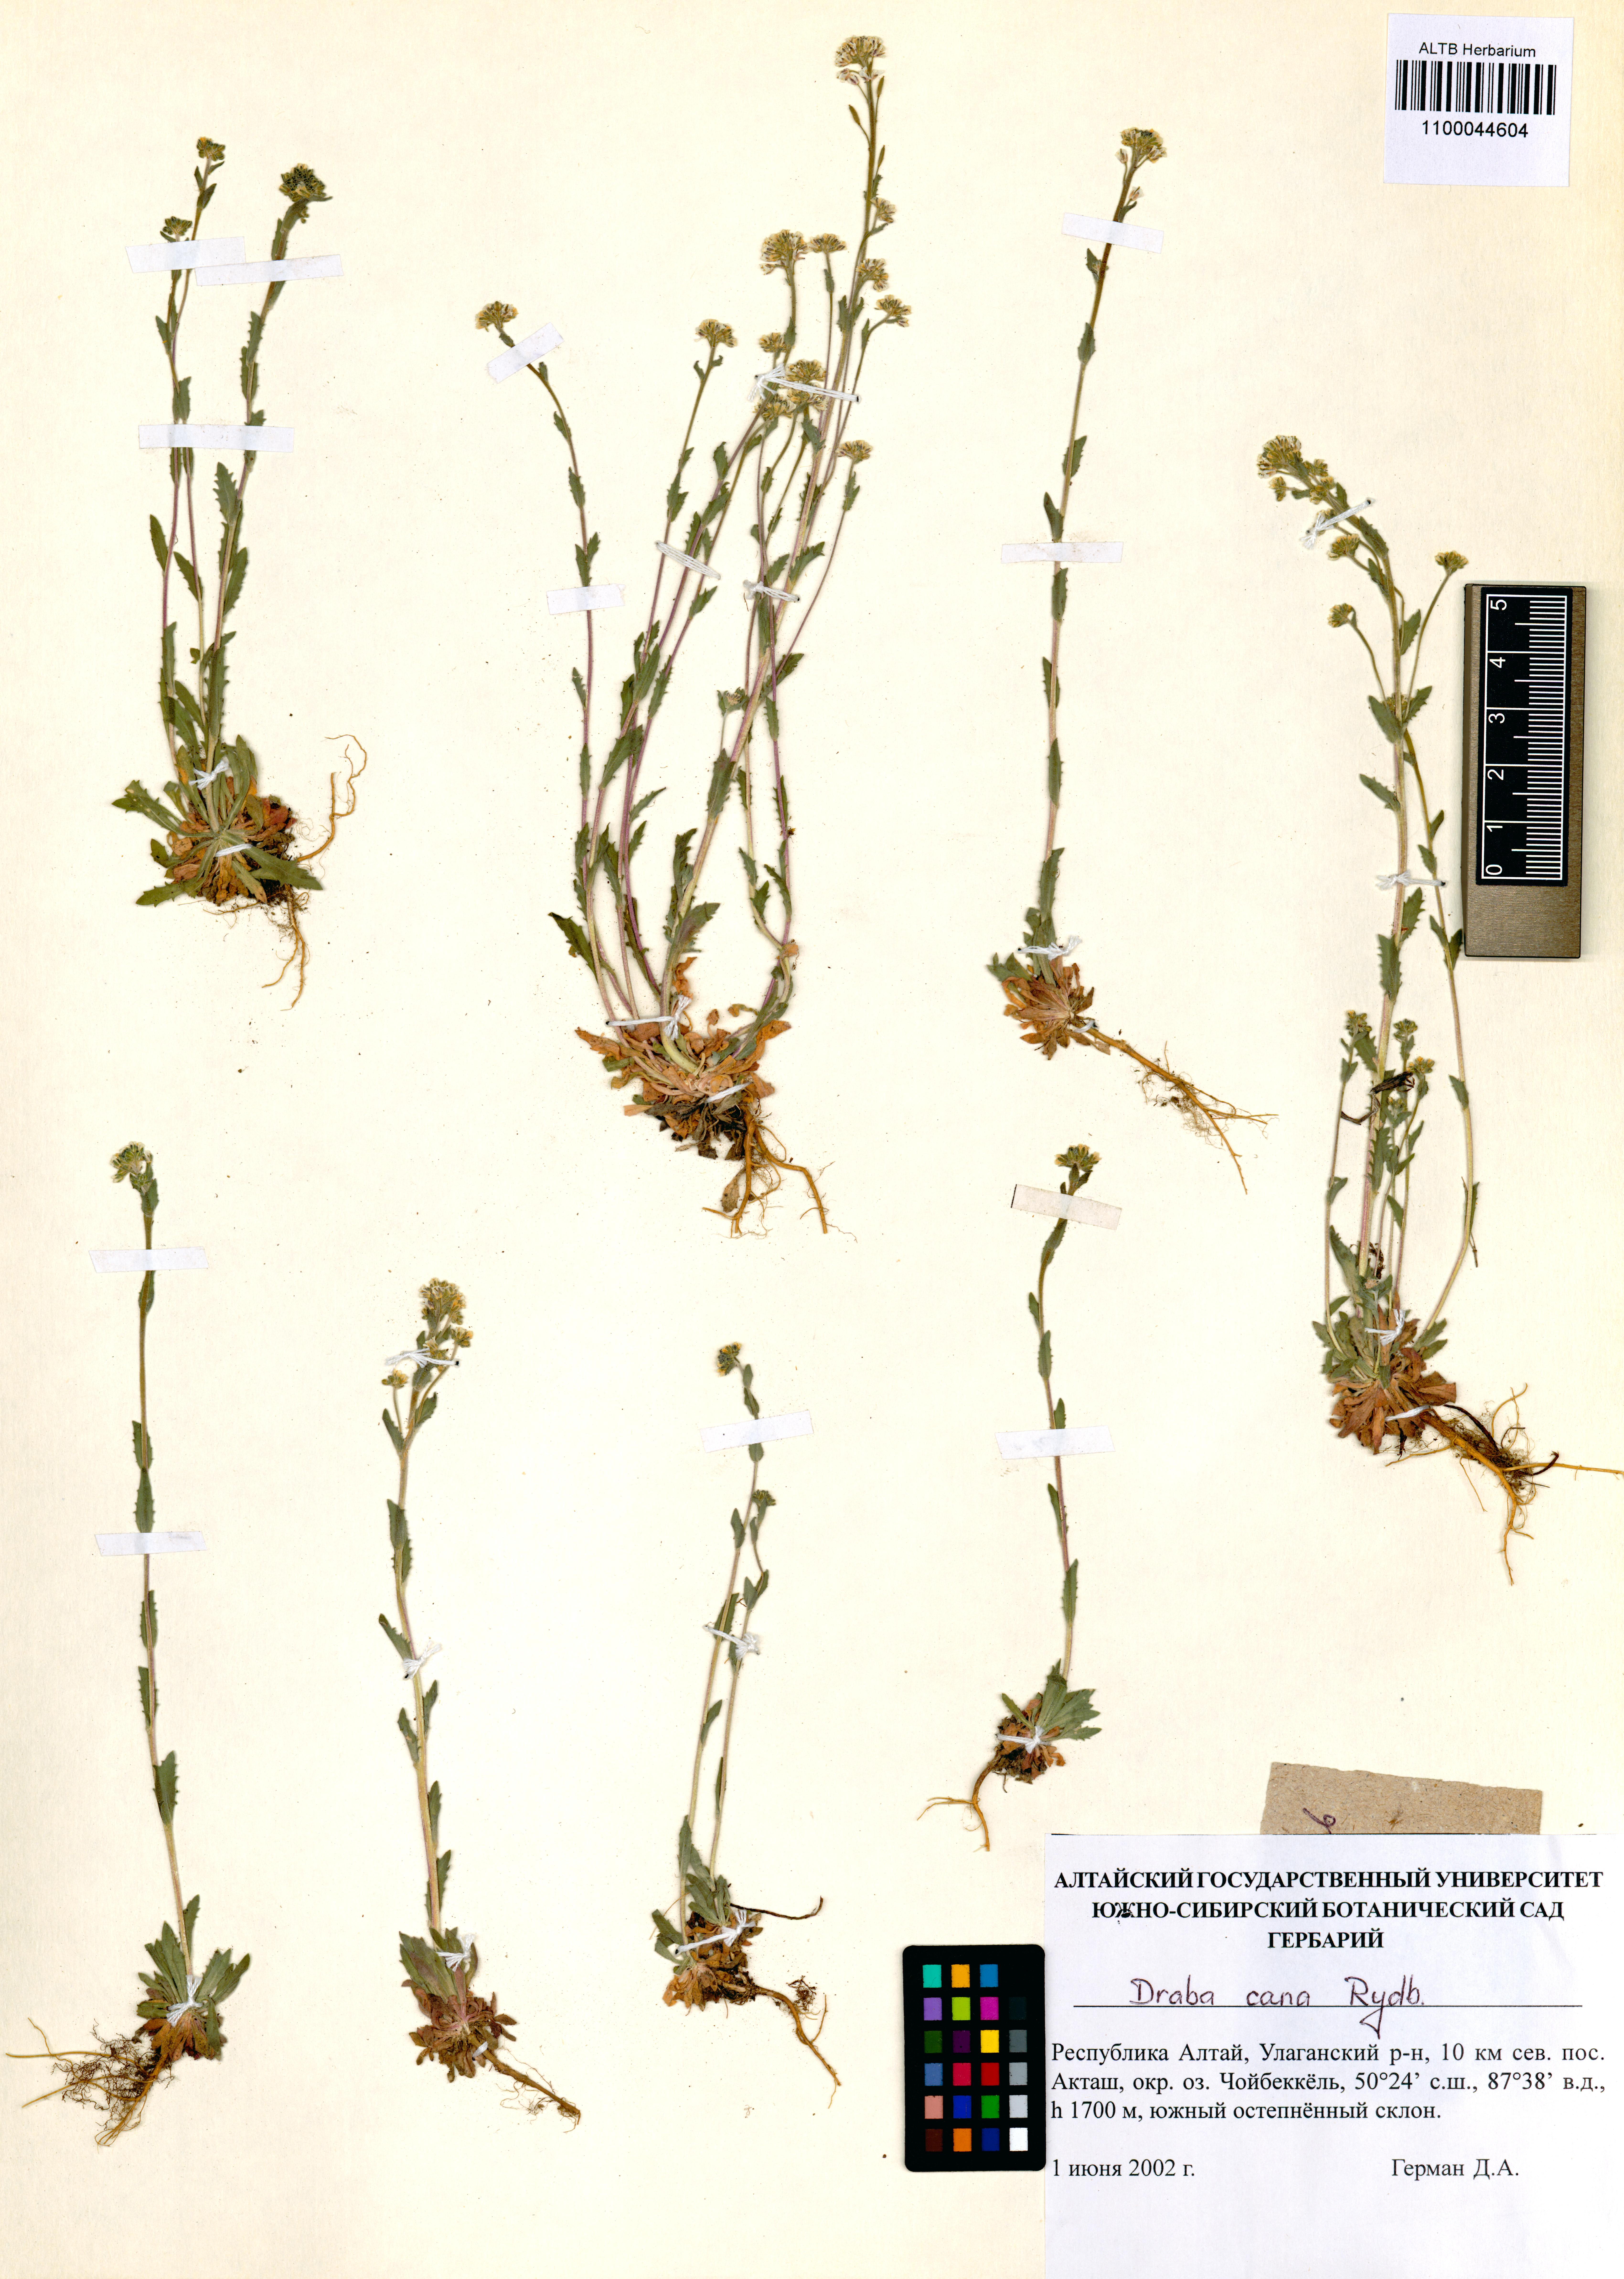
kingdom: Plantae
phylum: Tracheophyta
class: Magnoliopsida
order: Brassicales
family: Brassicaceae
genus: Draba
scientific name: Draba cana
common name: Hoary draba
